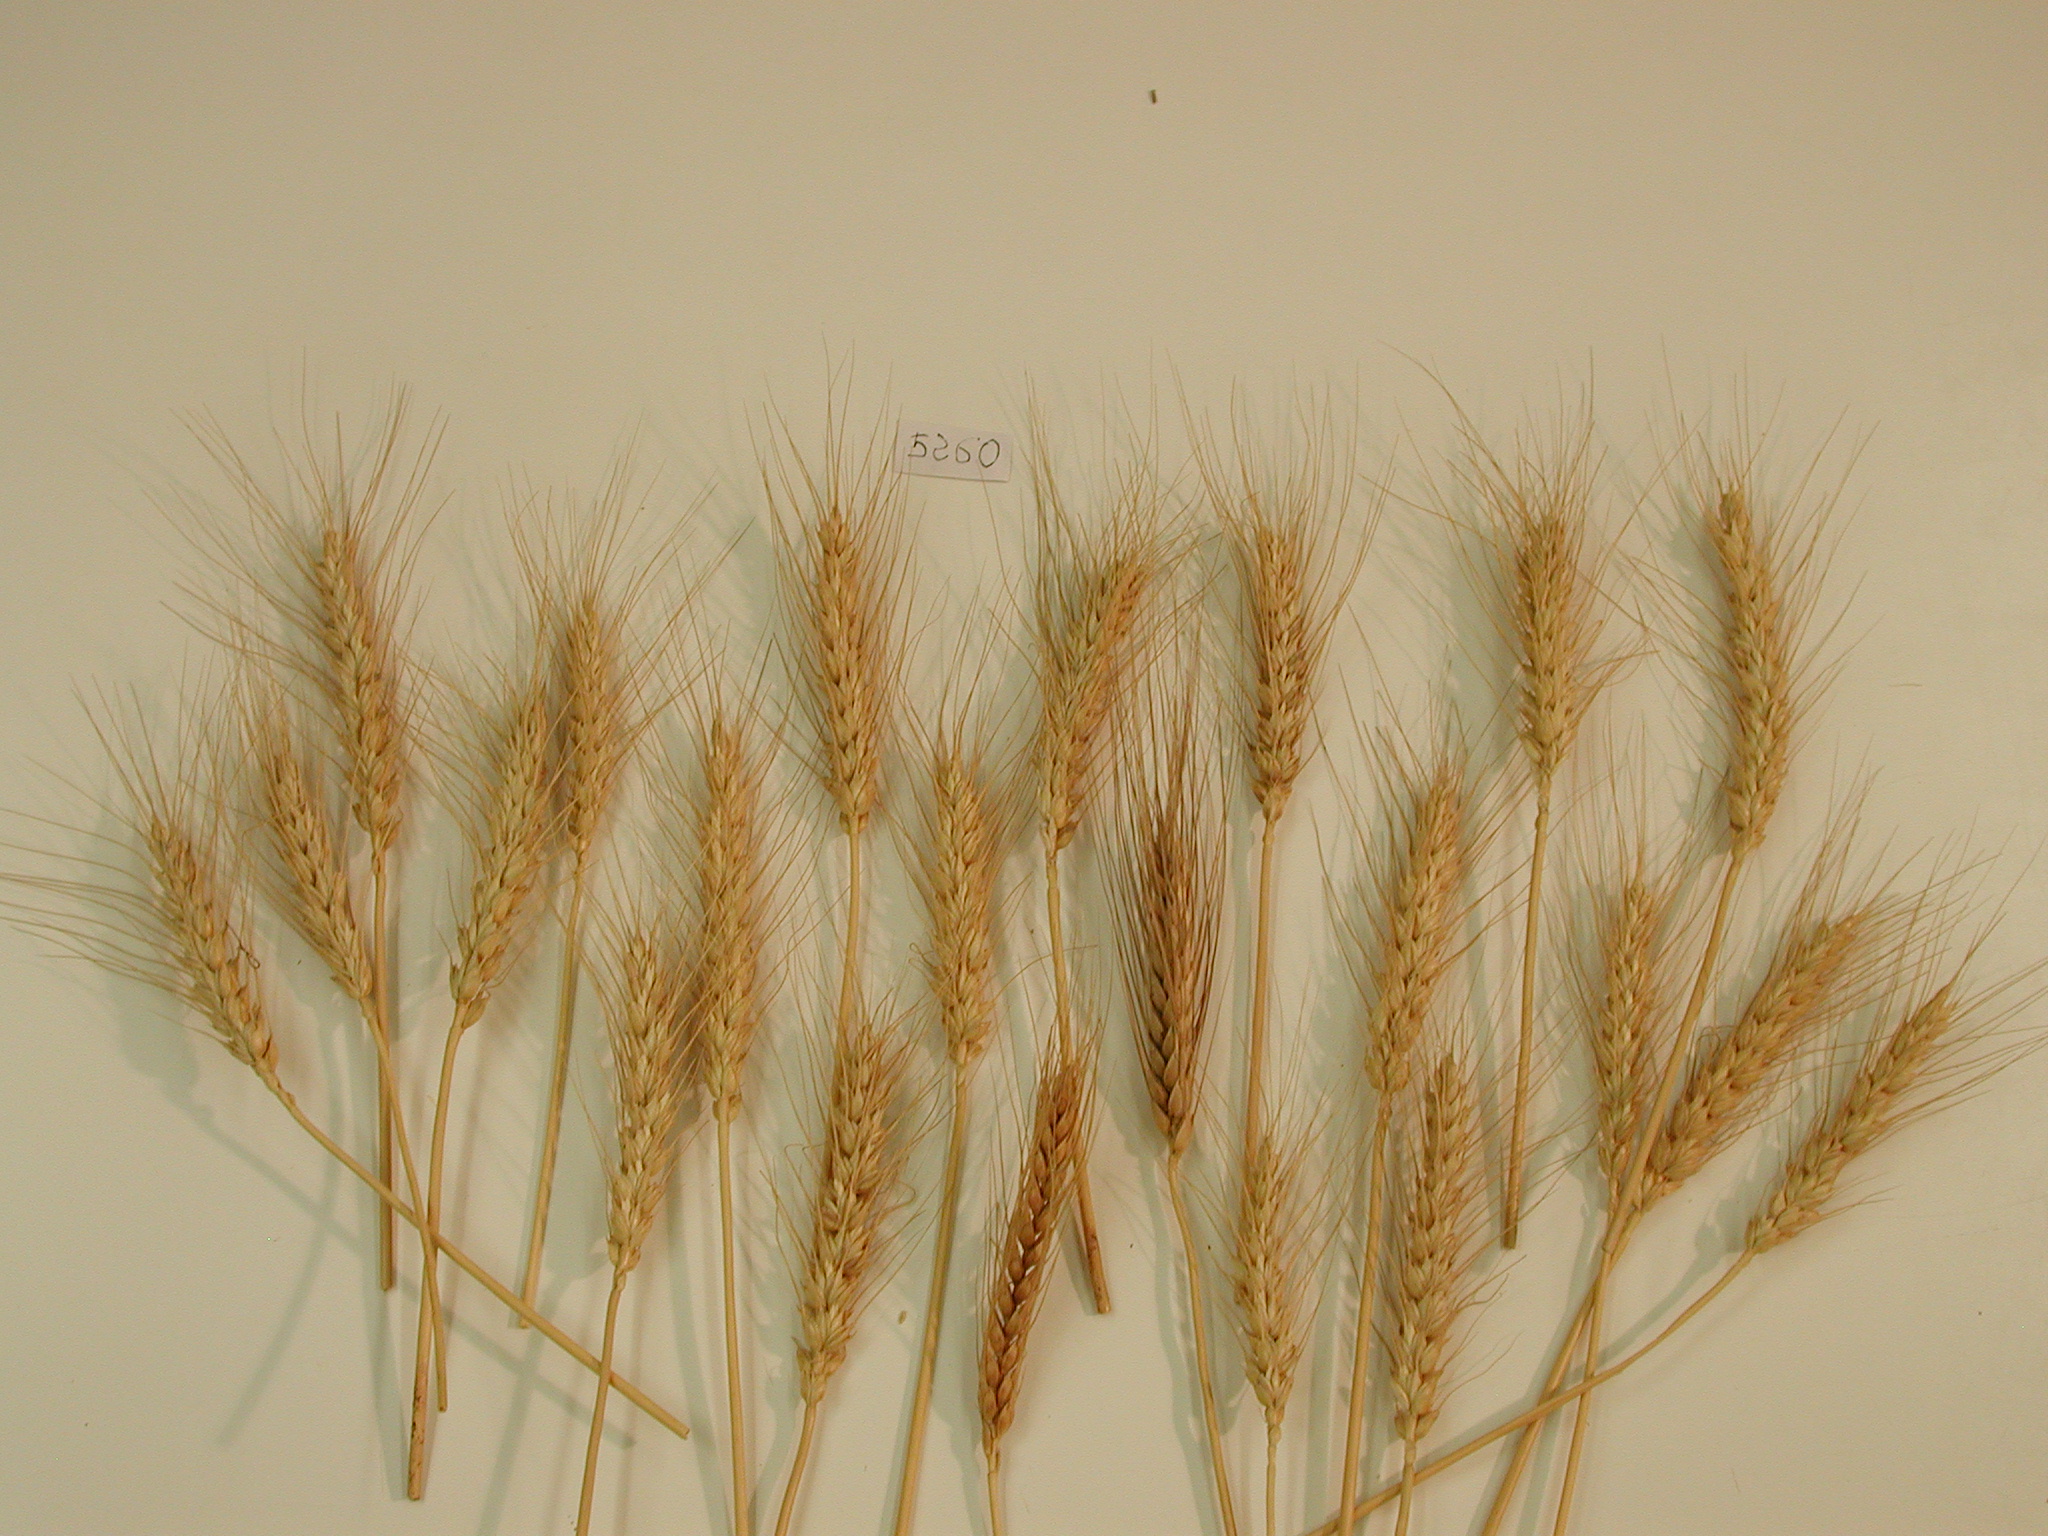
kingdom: Plantae
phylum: Tracheophyta
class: Liliopsida
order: Poales
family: Poaceae
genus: Triticum
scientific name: Triticum aestivum
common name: Wheat
